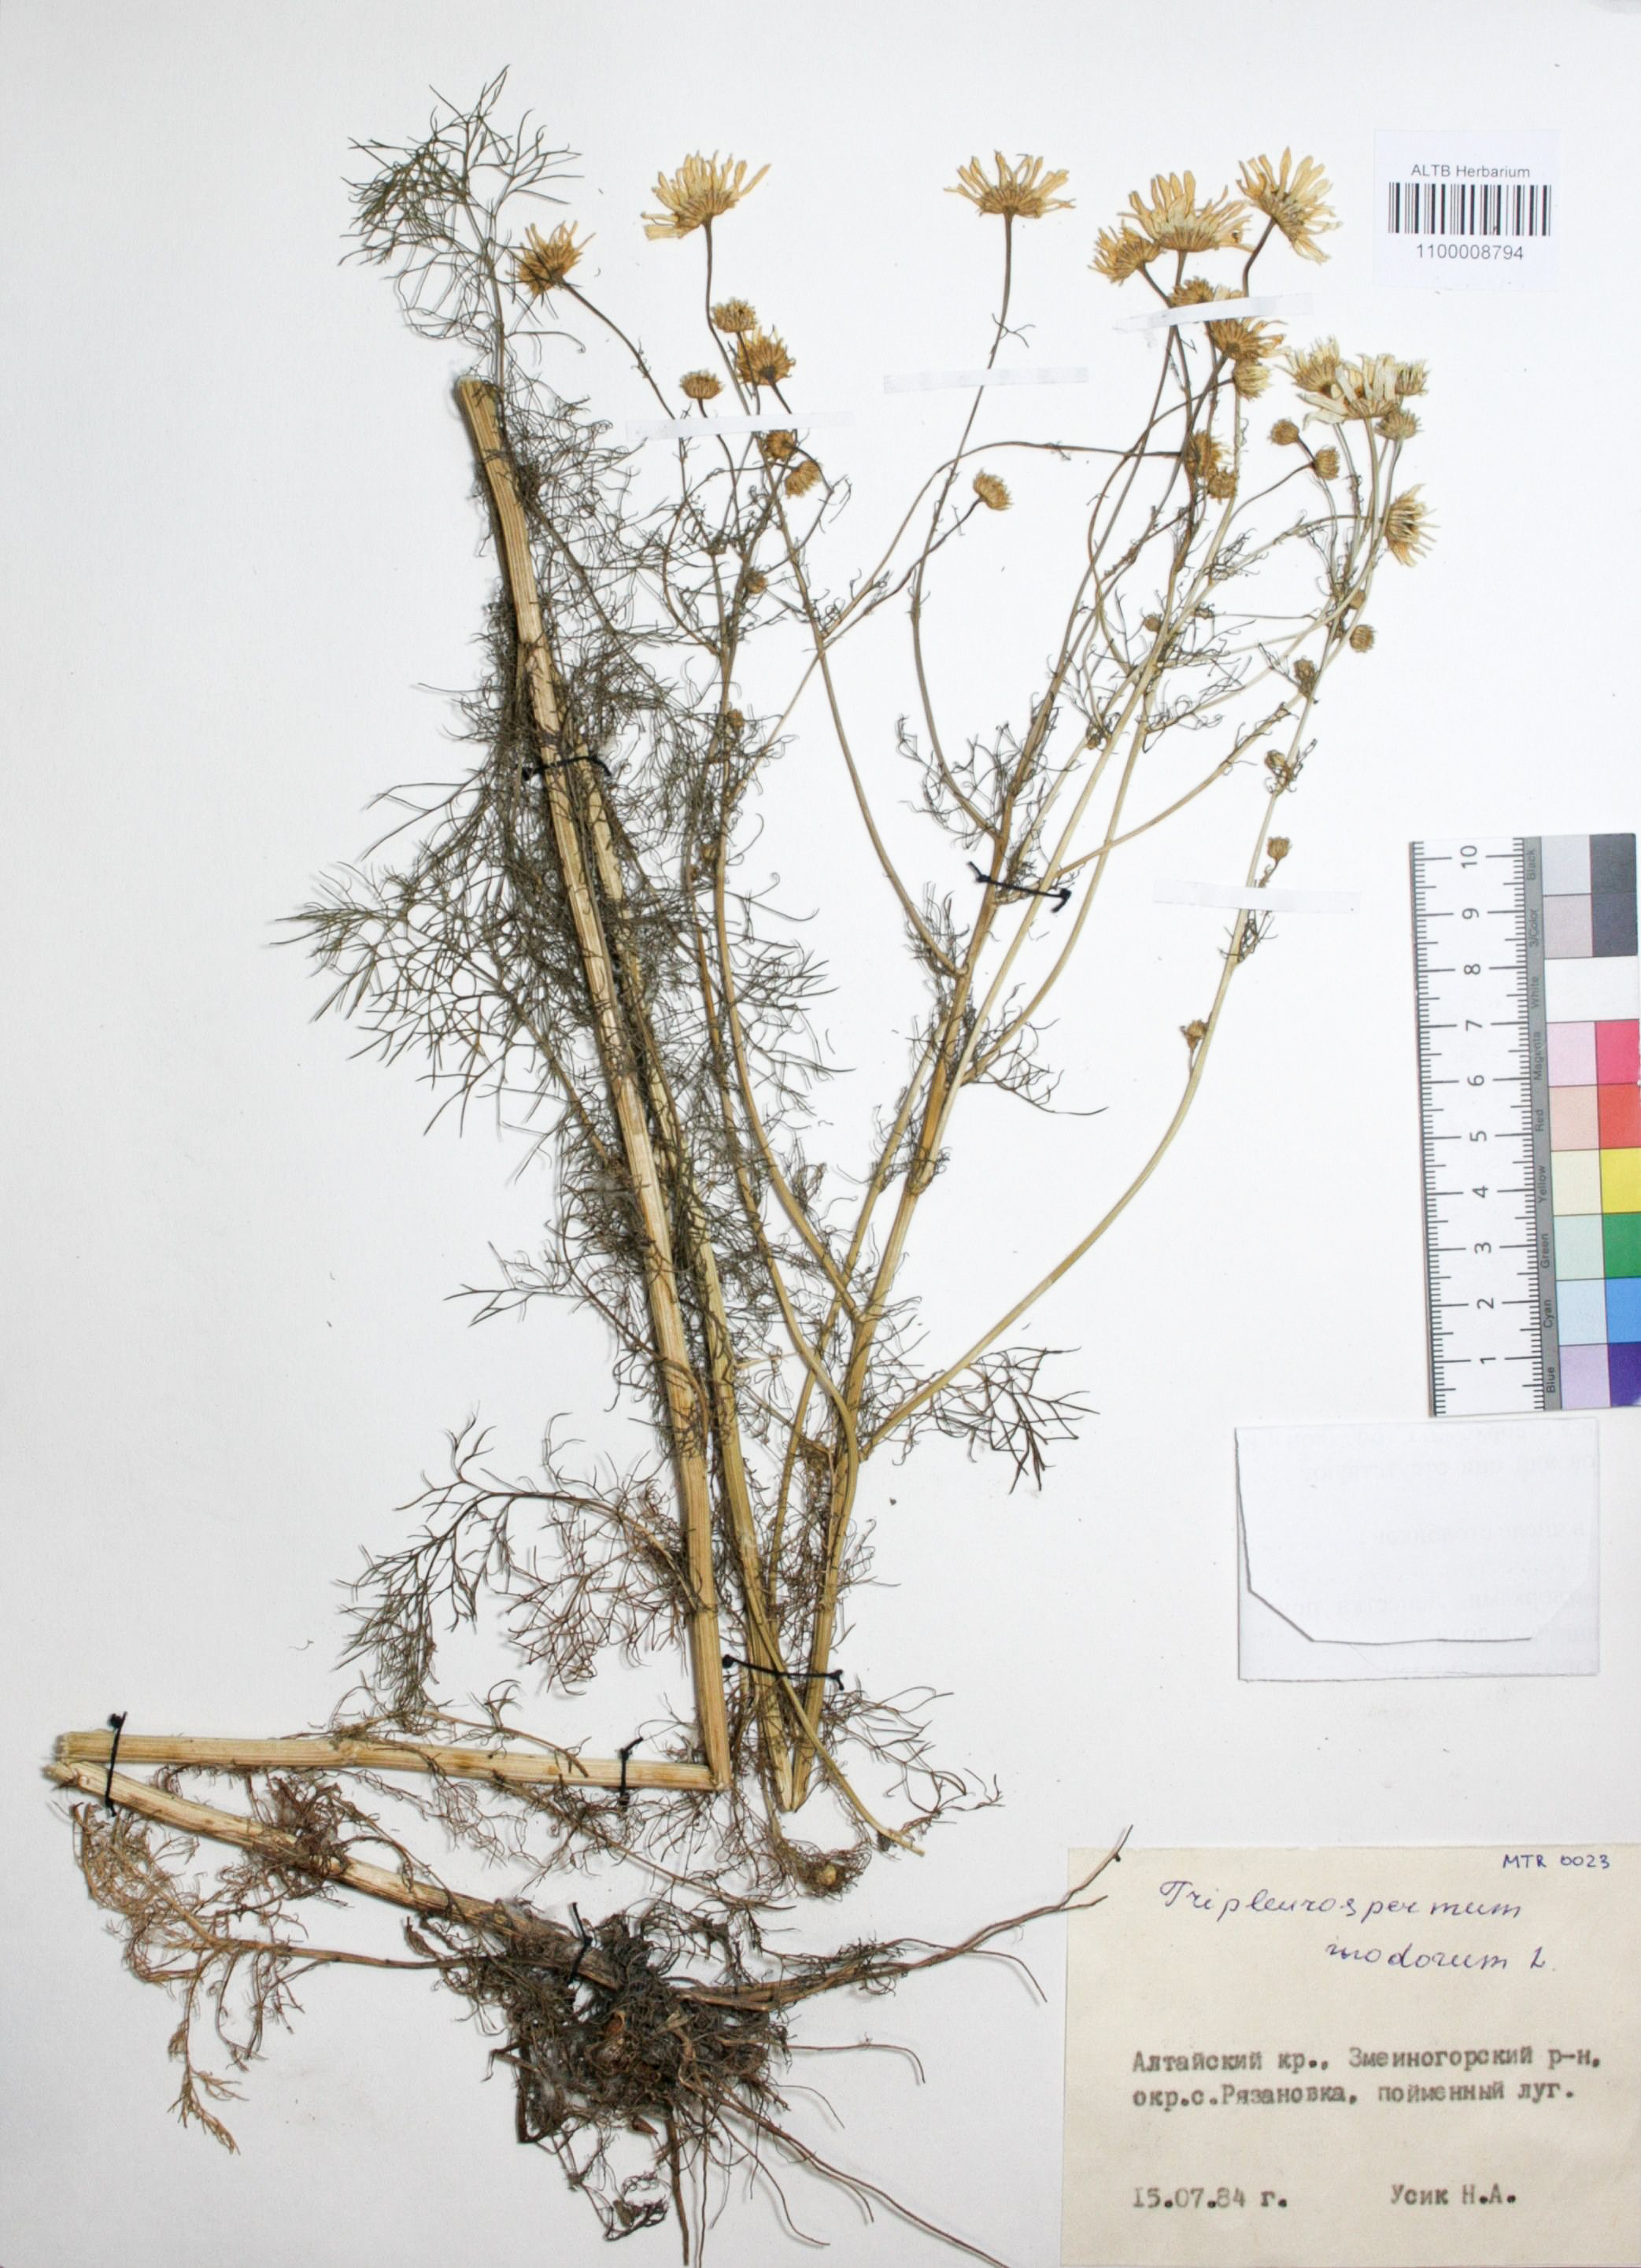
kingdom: Plantae
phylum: Tracheophyta
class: Magnoliopsida
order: Asterales
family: Asteraceae
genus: Tripleurospermum
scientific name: Tripleurospermum inodorum
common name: Scentless mayweed
